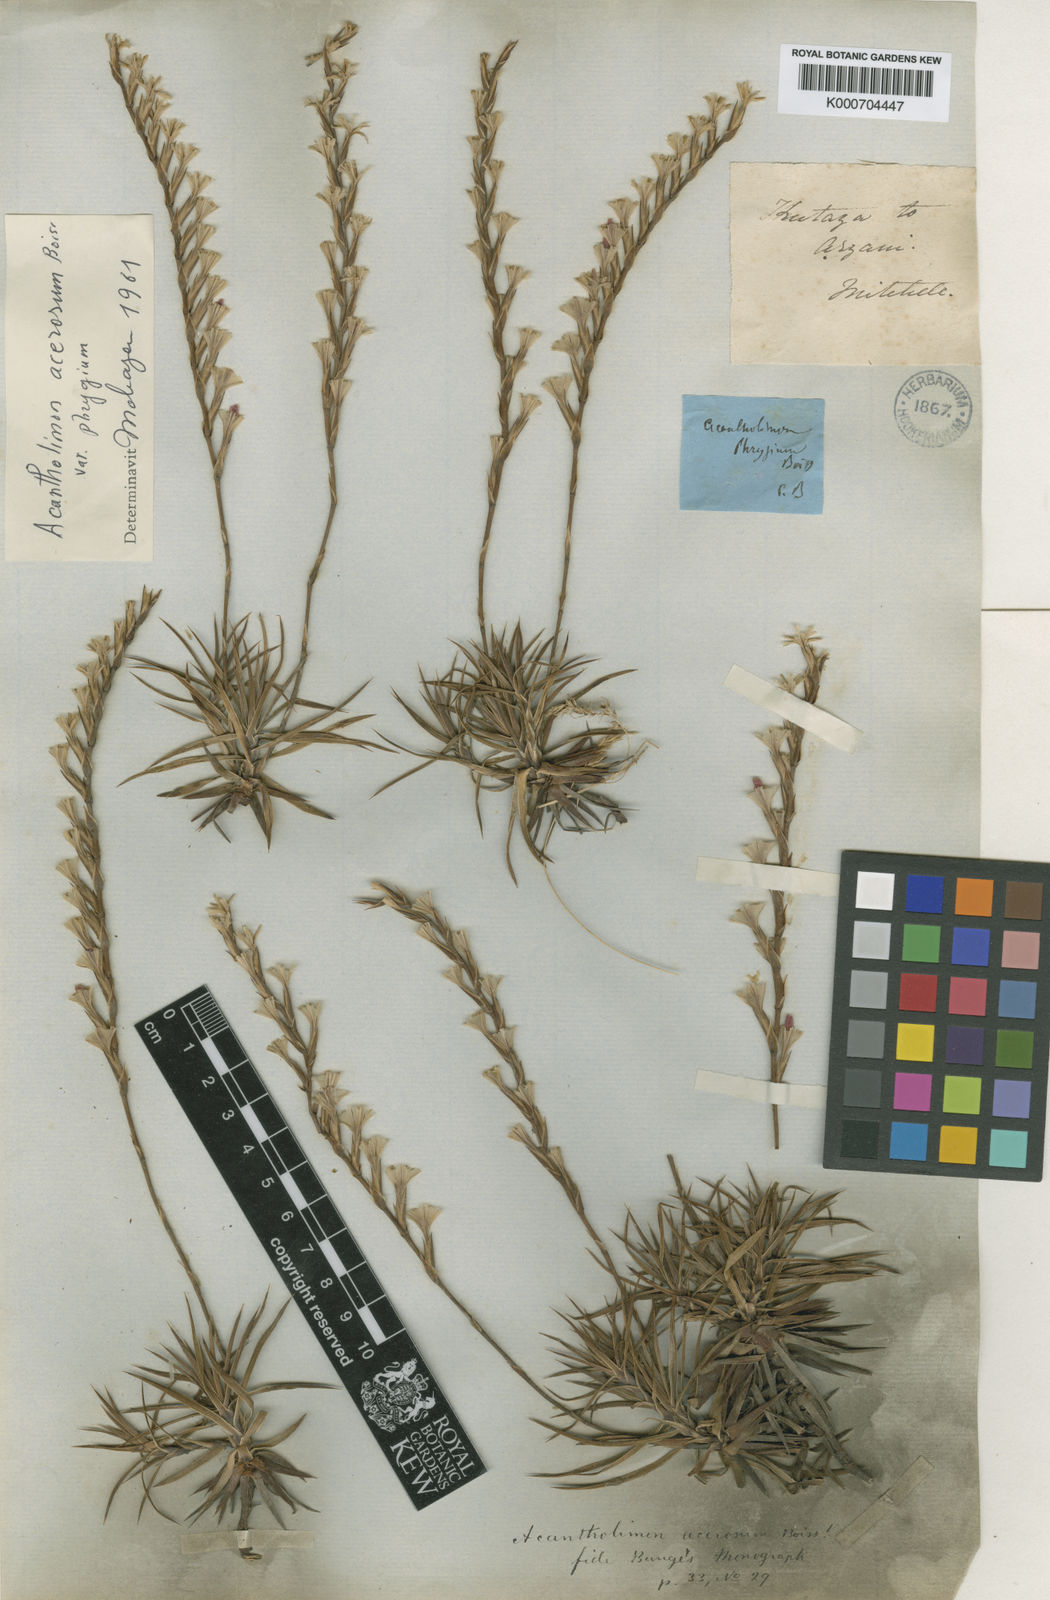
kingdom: Plantae
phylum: Tracheophyta
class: Magnoliopsida
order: Caryophyllales
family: Plumbaginaceae
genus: Acantholimon
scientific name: Acantholimon acerosum
